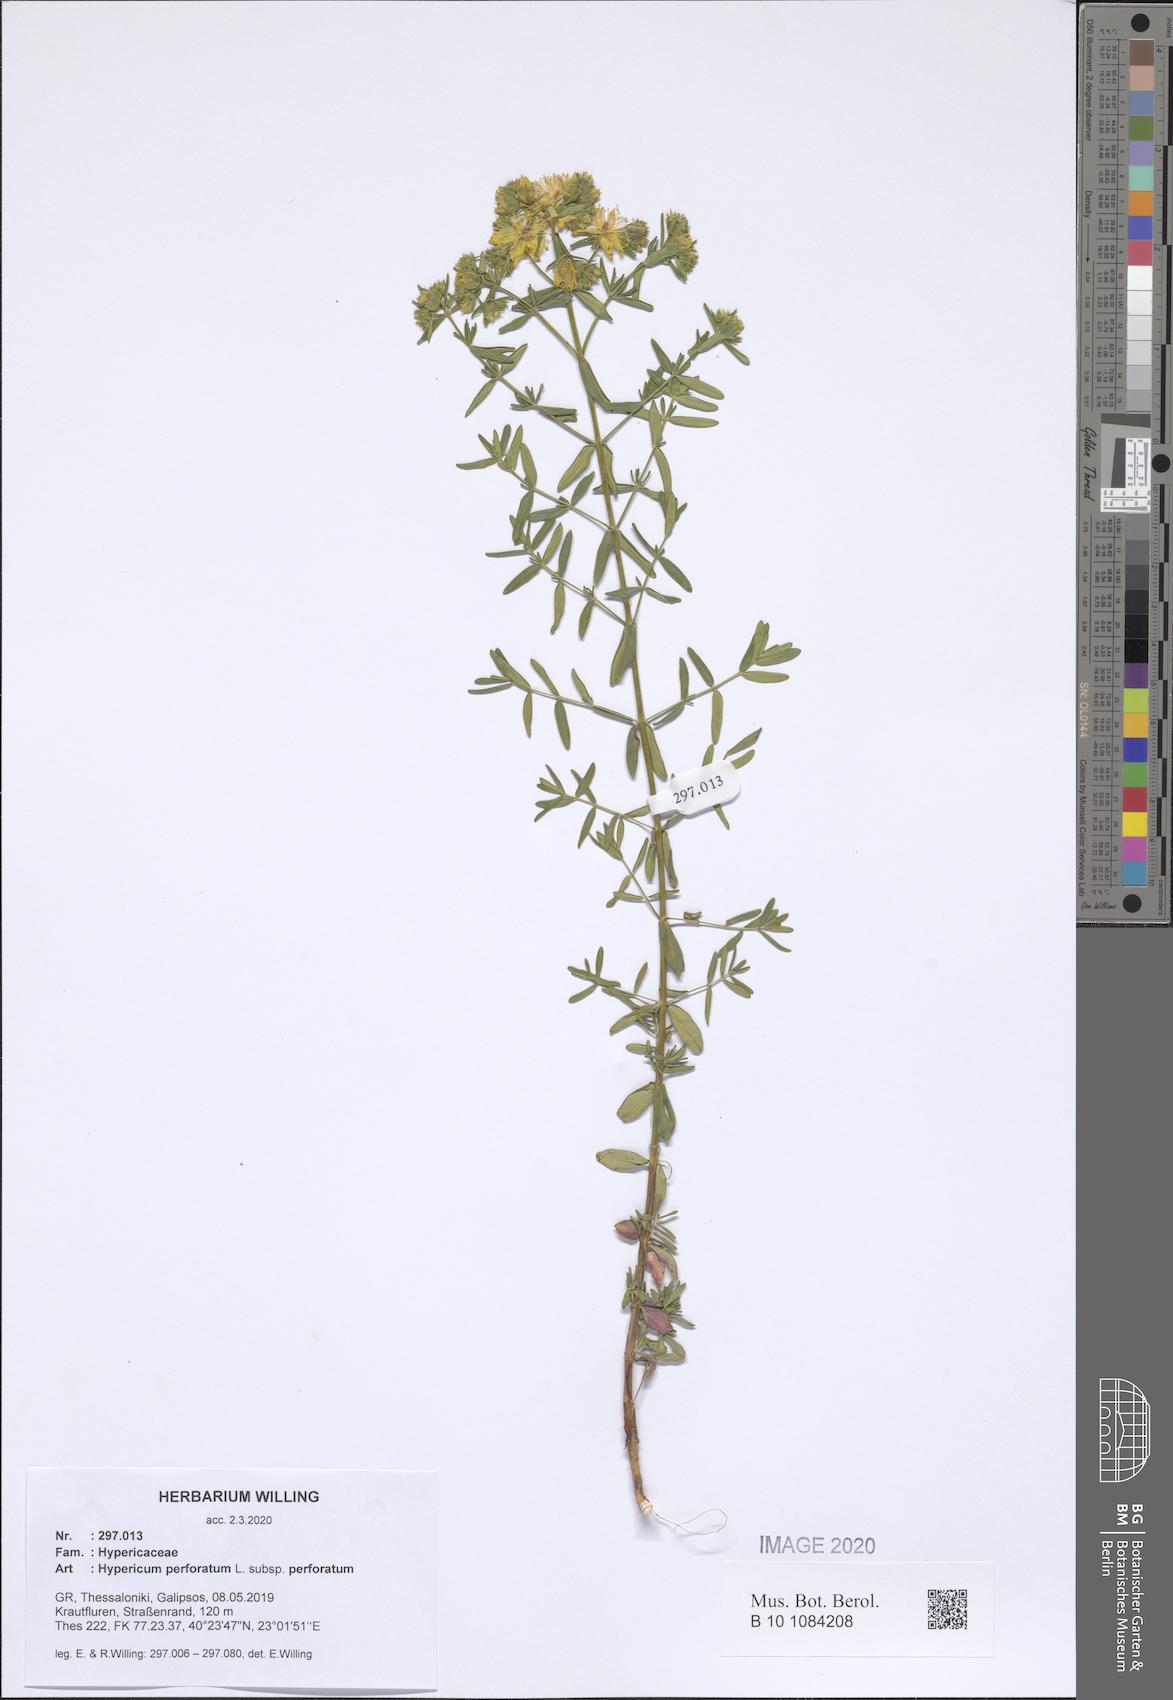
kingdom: Plantae
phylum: Tracheophyta
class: Magnoliopsida
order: Malpighiales
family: Hypericaceae
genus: Hypericum
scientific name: Hypericum perforatum
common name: Common st. johnswort
